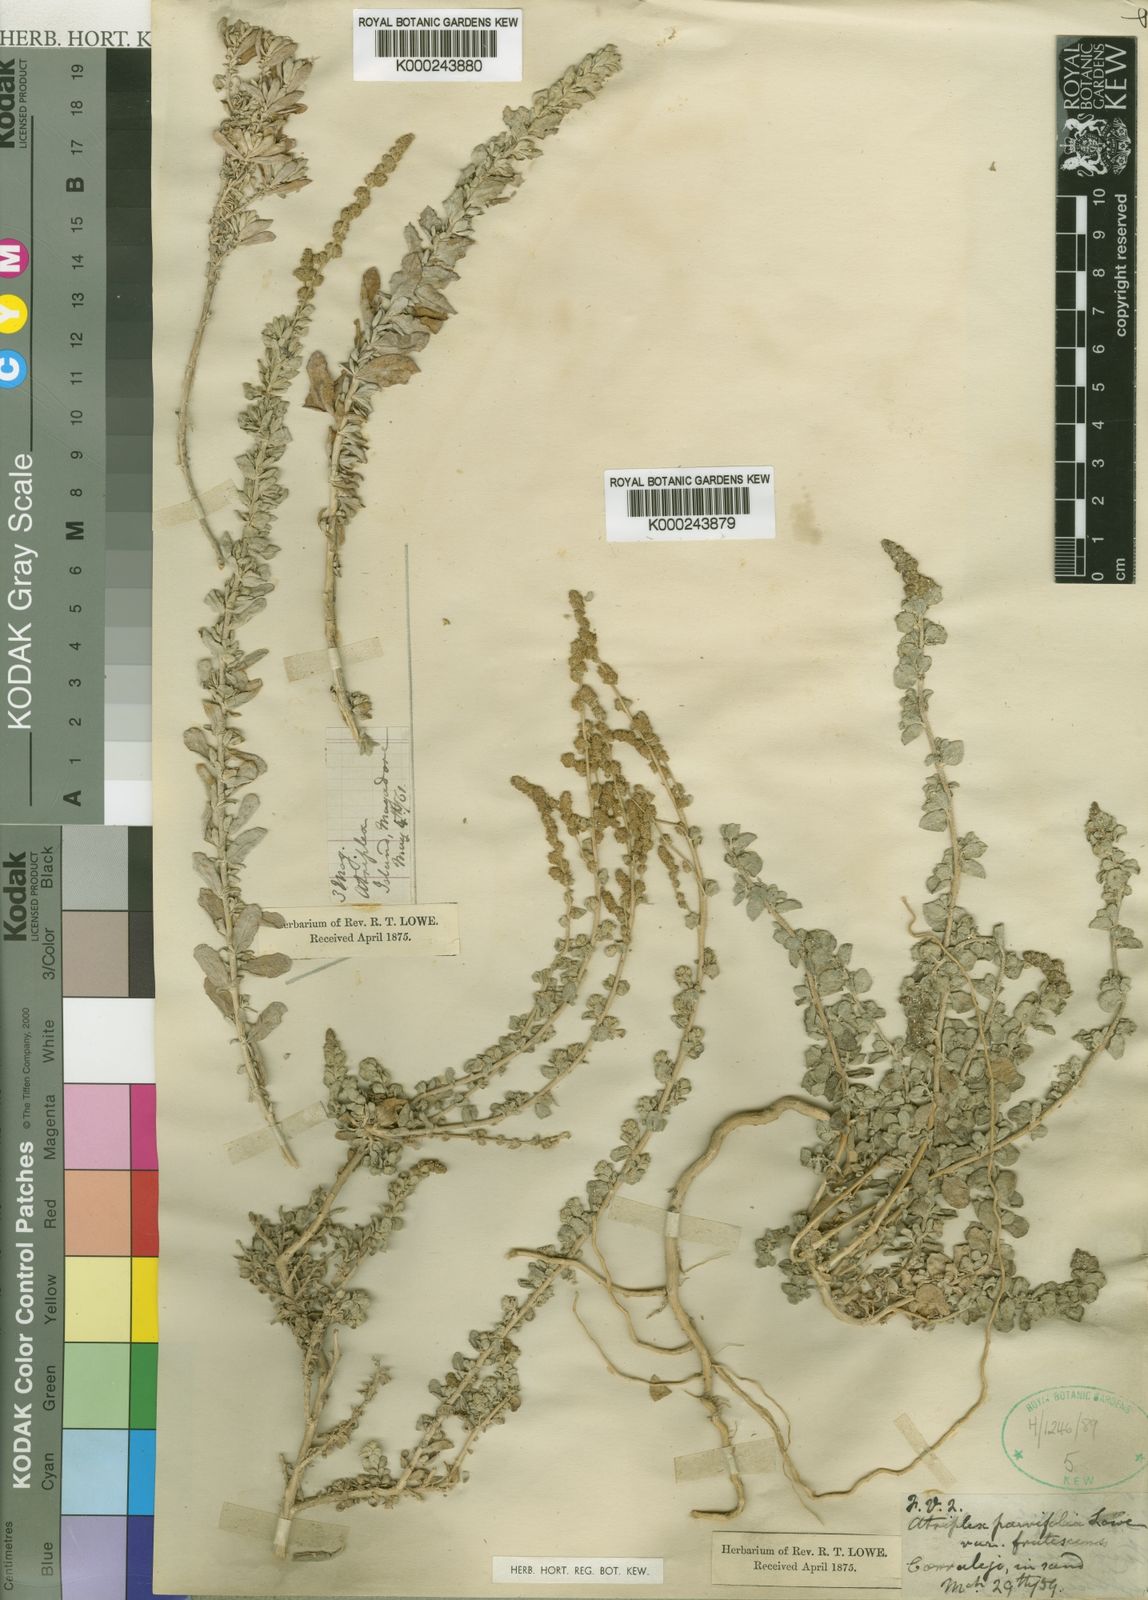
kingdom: Plantae
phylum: Tracheophyta
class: Magnoliopsida
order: Caryophyllales
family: Amaranthaceae
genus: Atriplex
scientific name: Atriplex glauca
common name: Waxy saltbush
